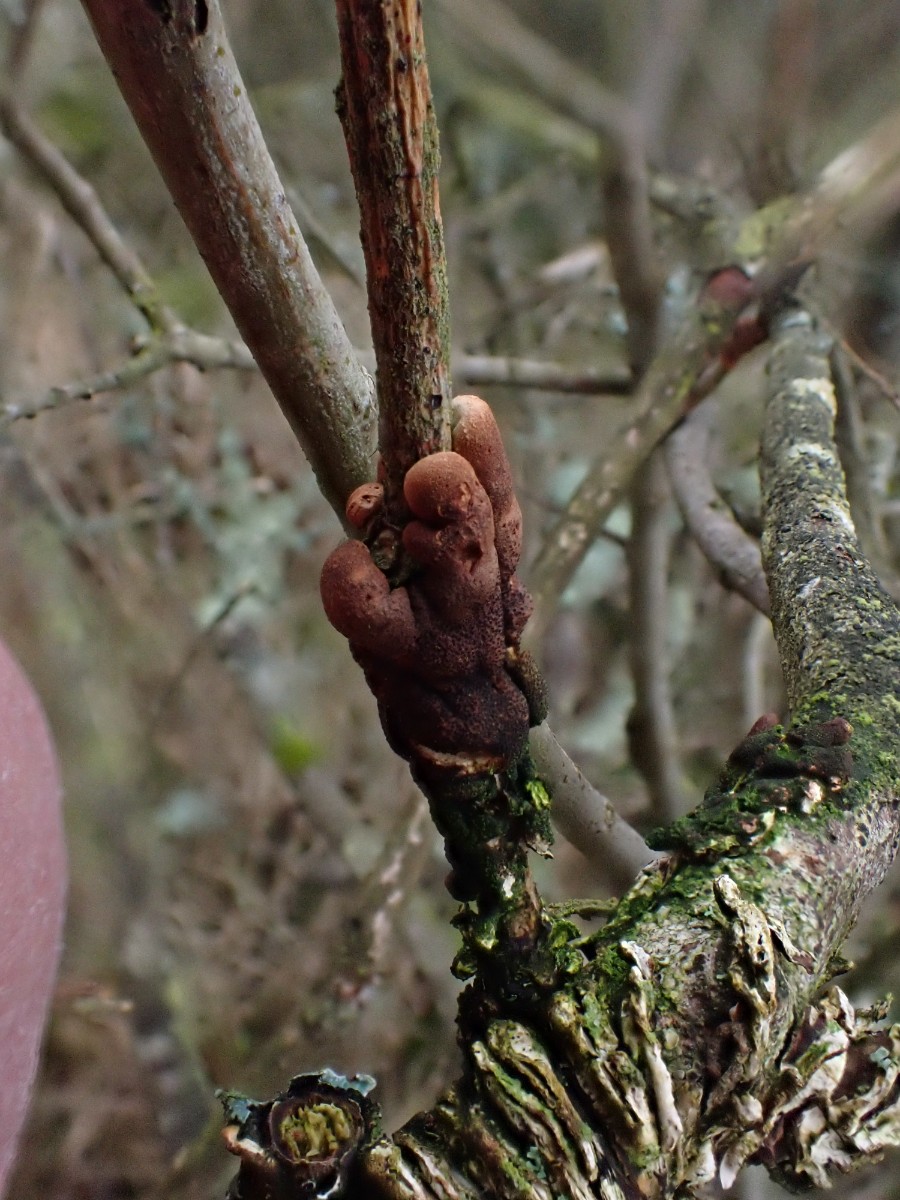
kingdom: Fungi
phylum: Ascomycota
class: Sordariomycetes
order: Hypocreales
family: Hypocreaceae
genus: Hypocreopsis
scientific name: Hypocreopsis lichenoides
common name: pilfinger
